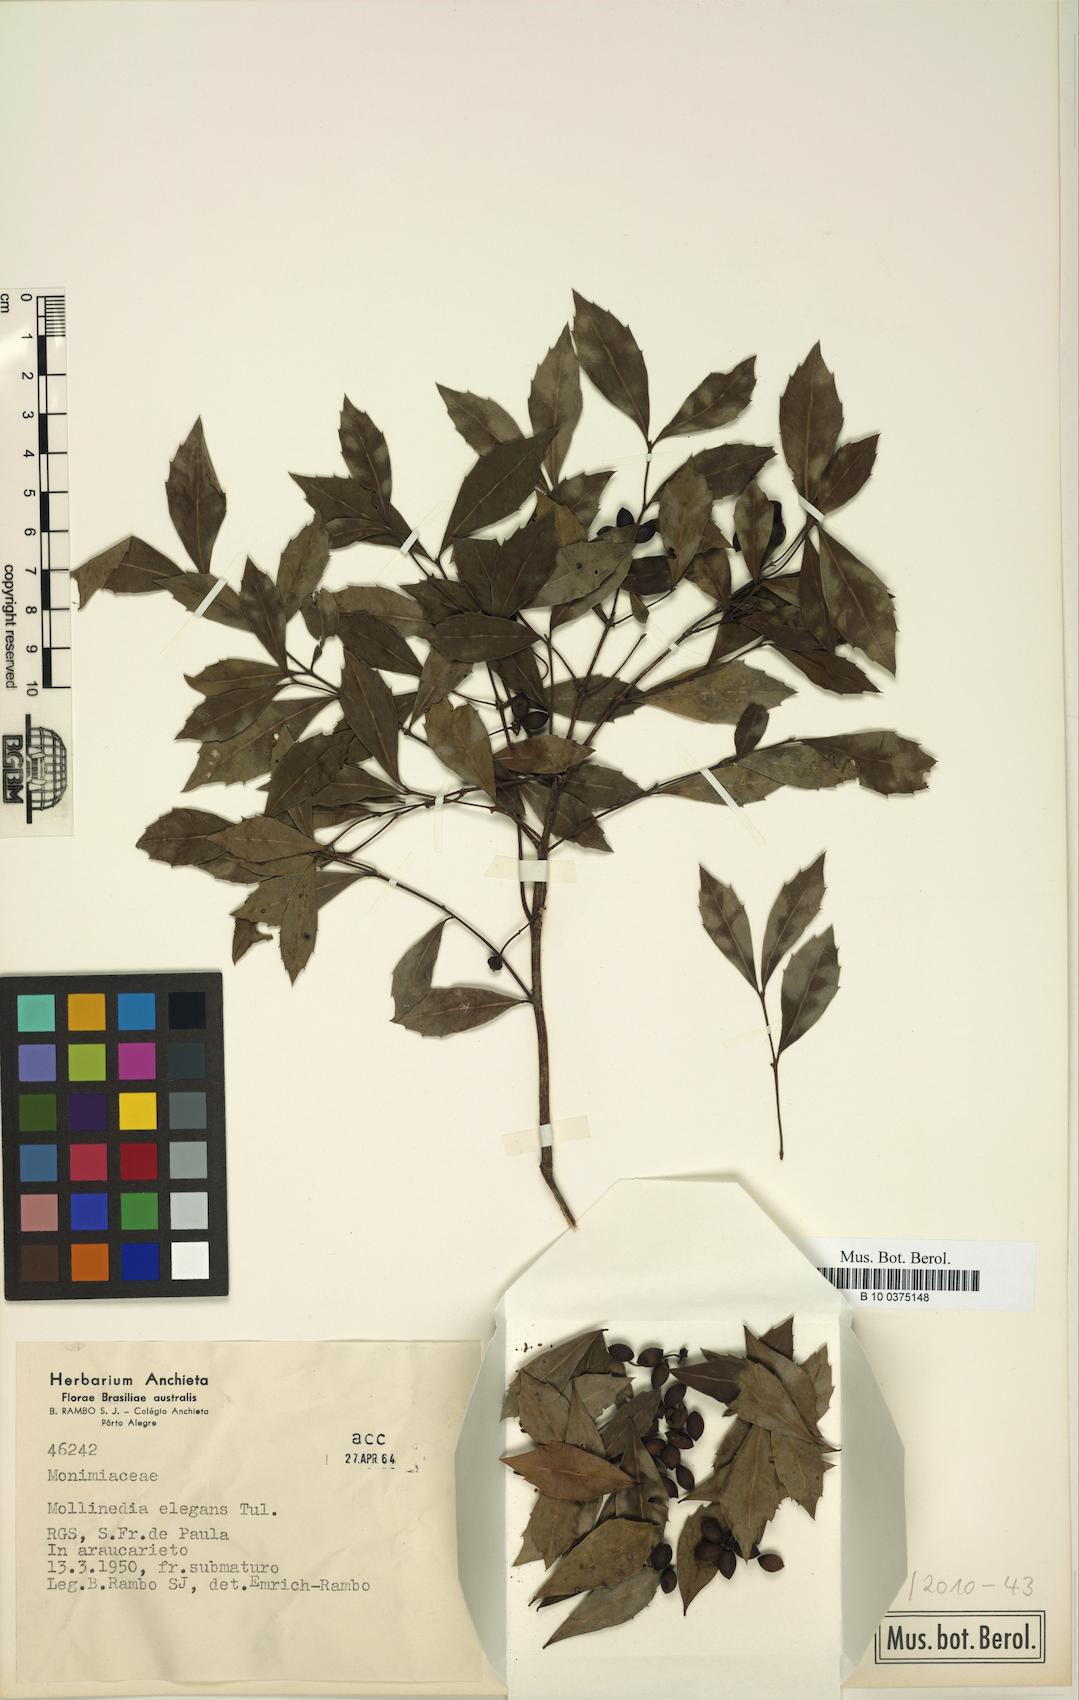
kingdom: Plantae
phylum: Tracheophyta
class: Magnoliopsida
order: Laurales
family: Monimiaceae
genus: Mollinedia
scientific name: Mollinedia elegans
